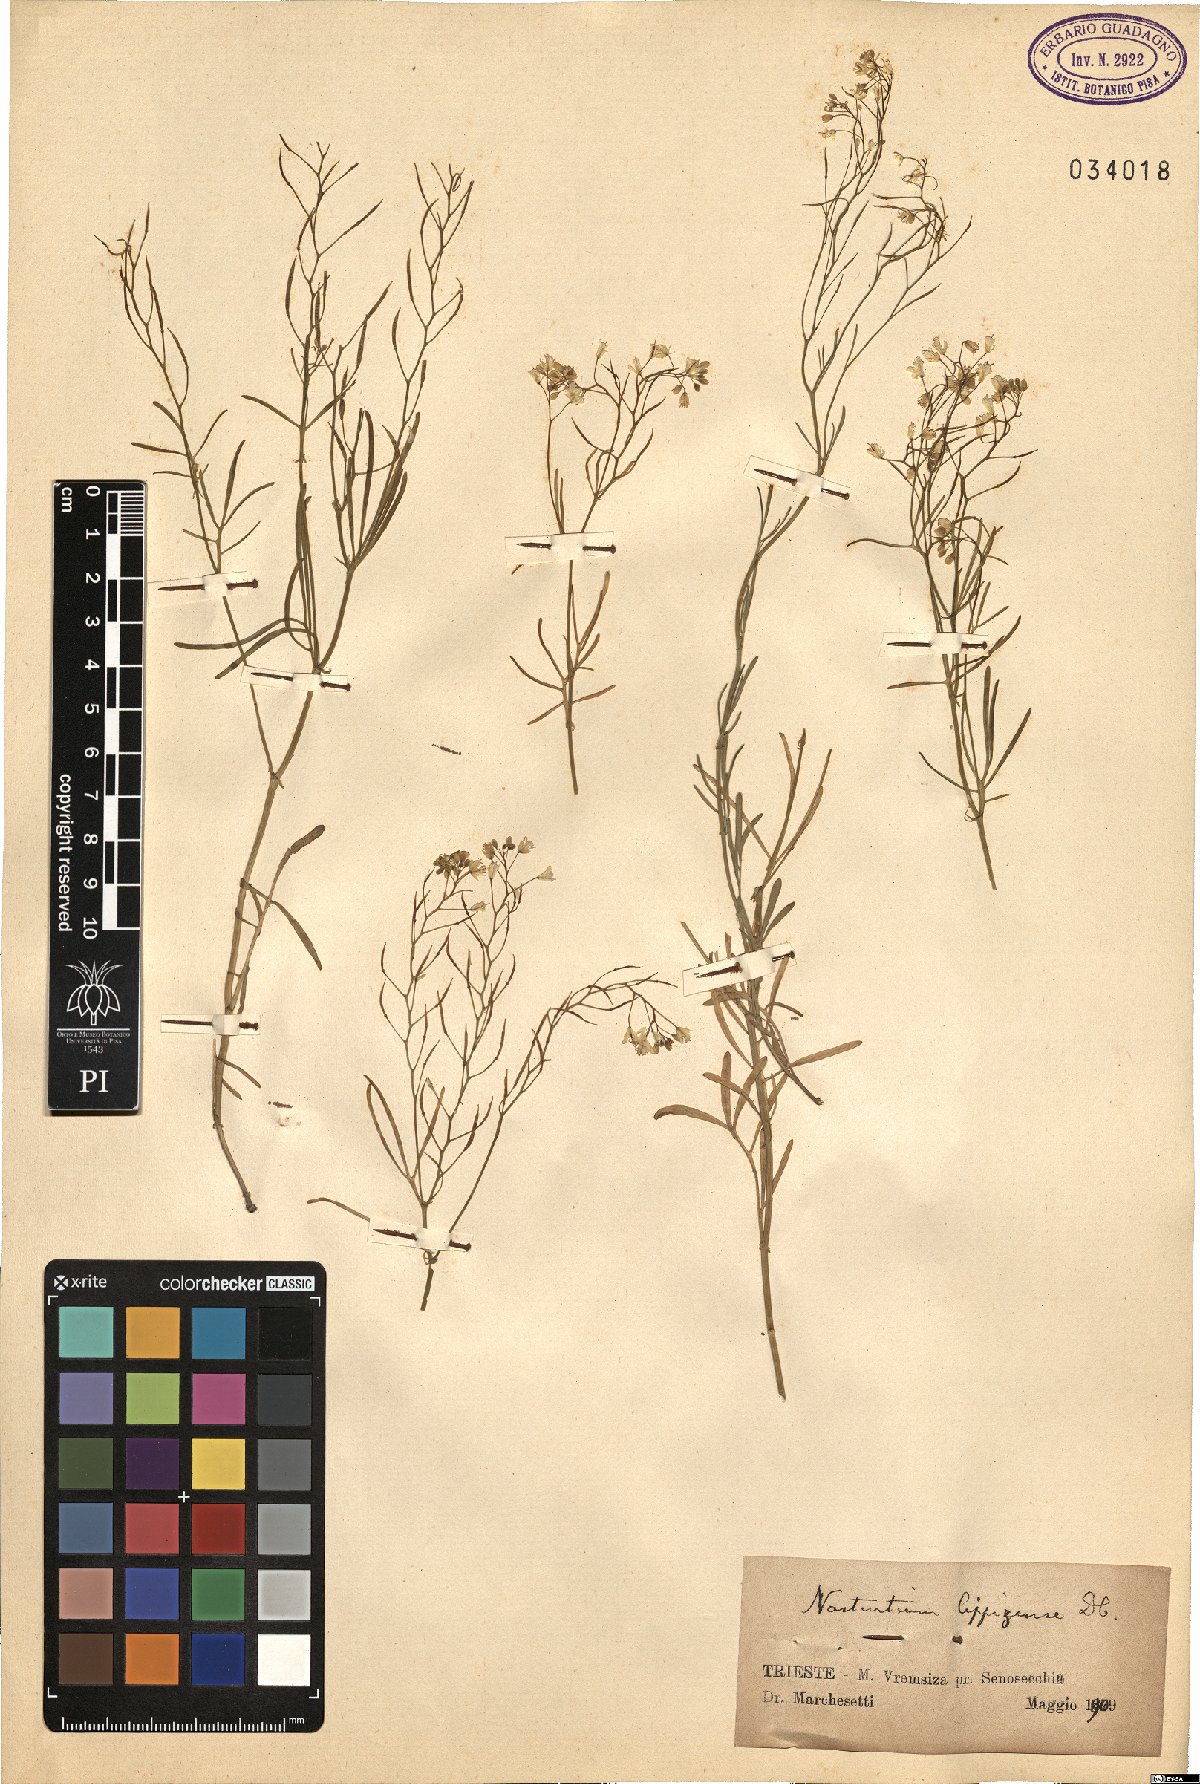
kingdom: Plantae
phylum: Tracheophyta
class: Magnoliopsida
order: Brassicales
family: Brassicaceae
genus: Rorippa
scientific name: Rorippa lippizensis
